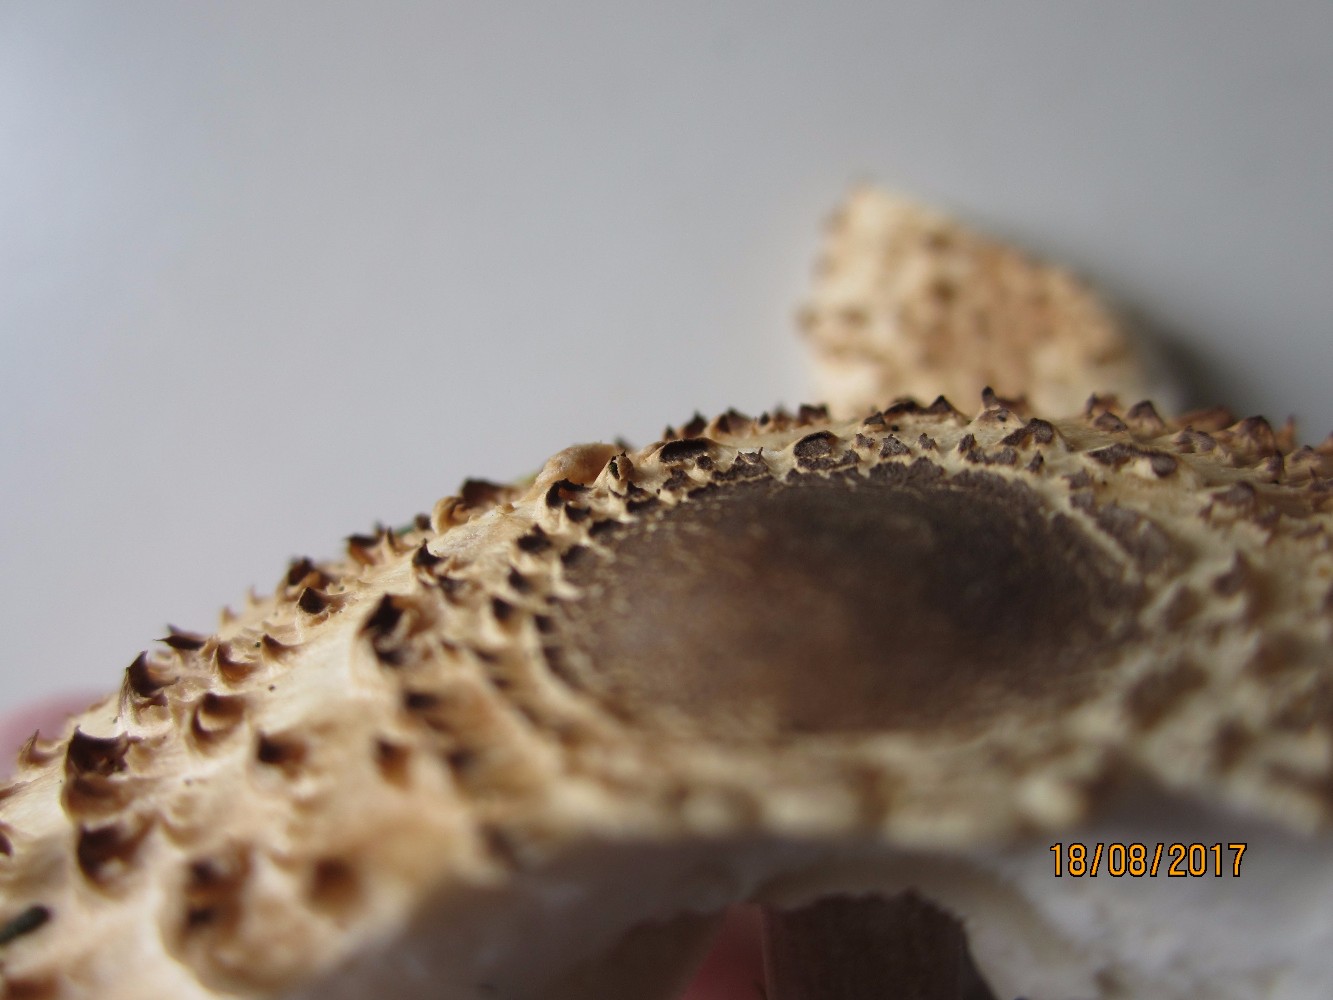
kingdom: Fungi
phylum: Basidiomycota
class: Agaricomycetes
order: Agaricales
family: Agaricaceae
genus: Leucoagaricus
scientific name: Leucoagaricus nympharum
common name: gran-silkehat
